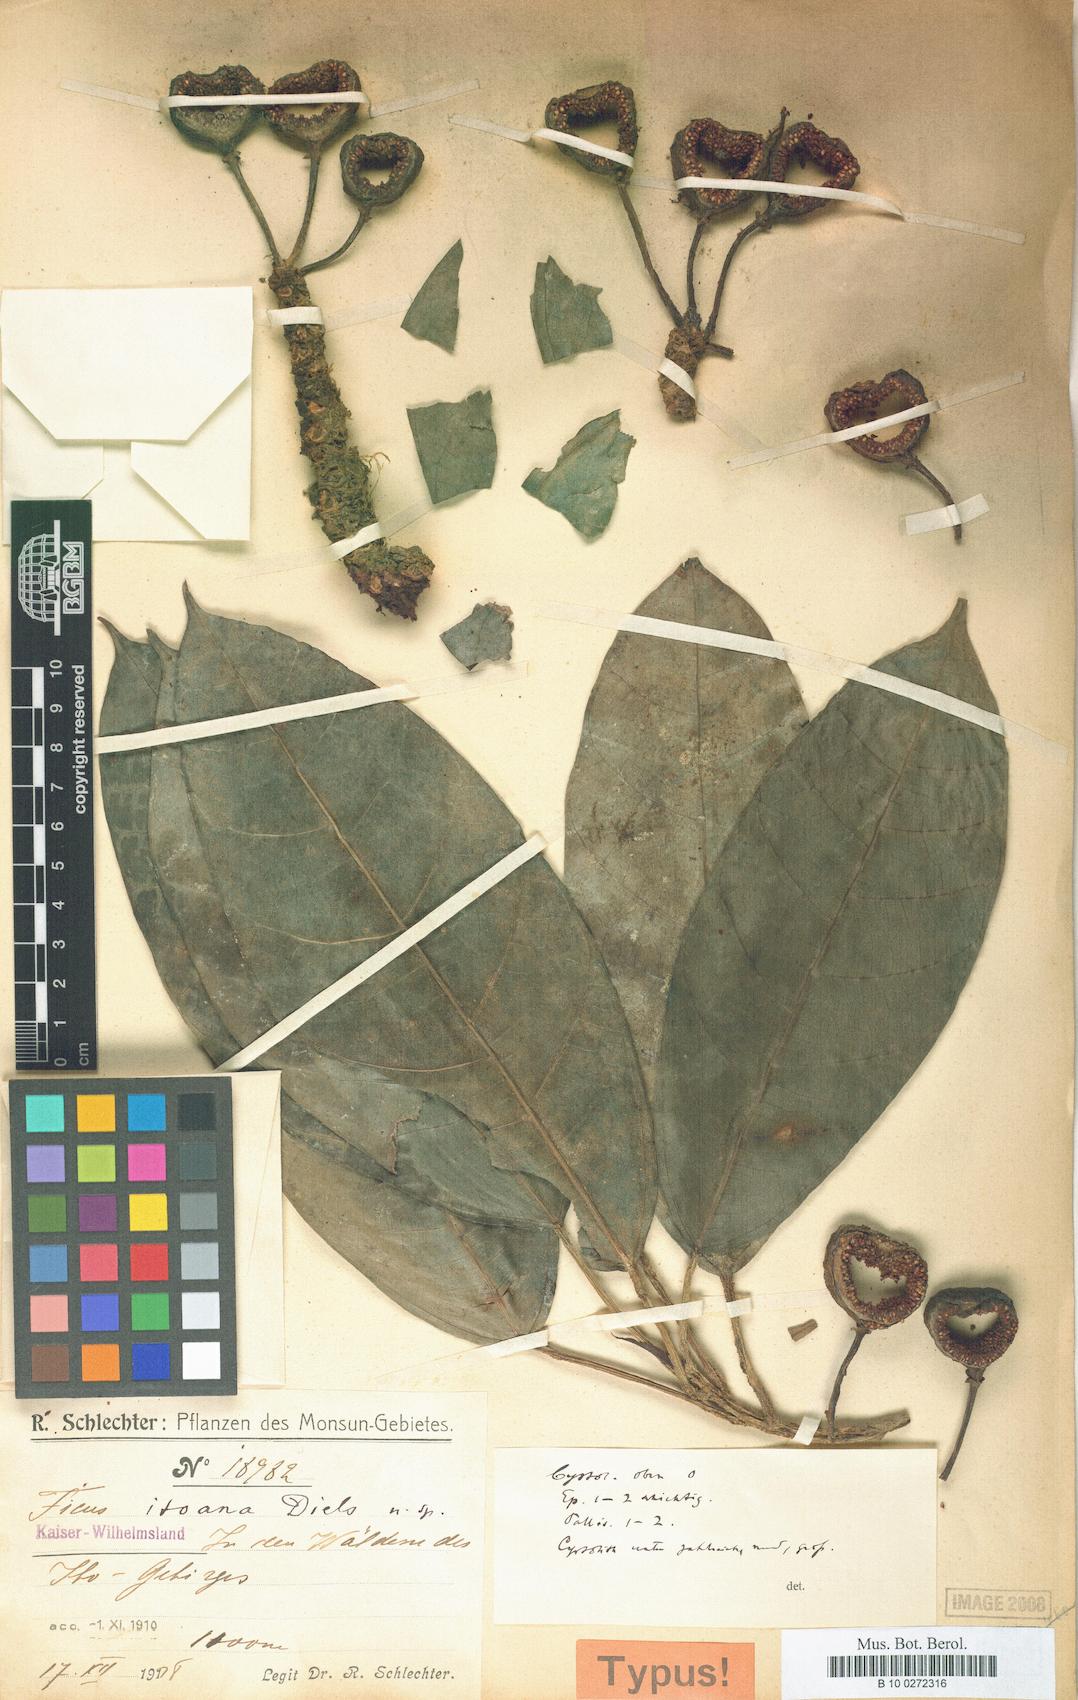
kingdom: Plantae
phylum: Tracheophyta
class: Magnoliopsida
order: Rosales
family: Moraceae
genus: Ficus
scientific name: Ficus itoana
